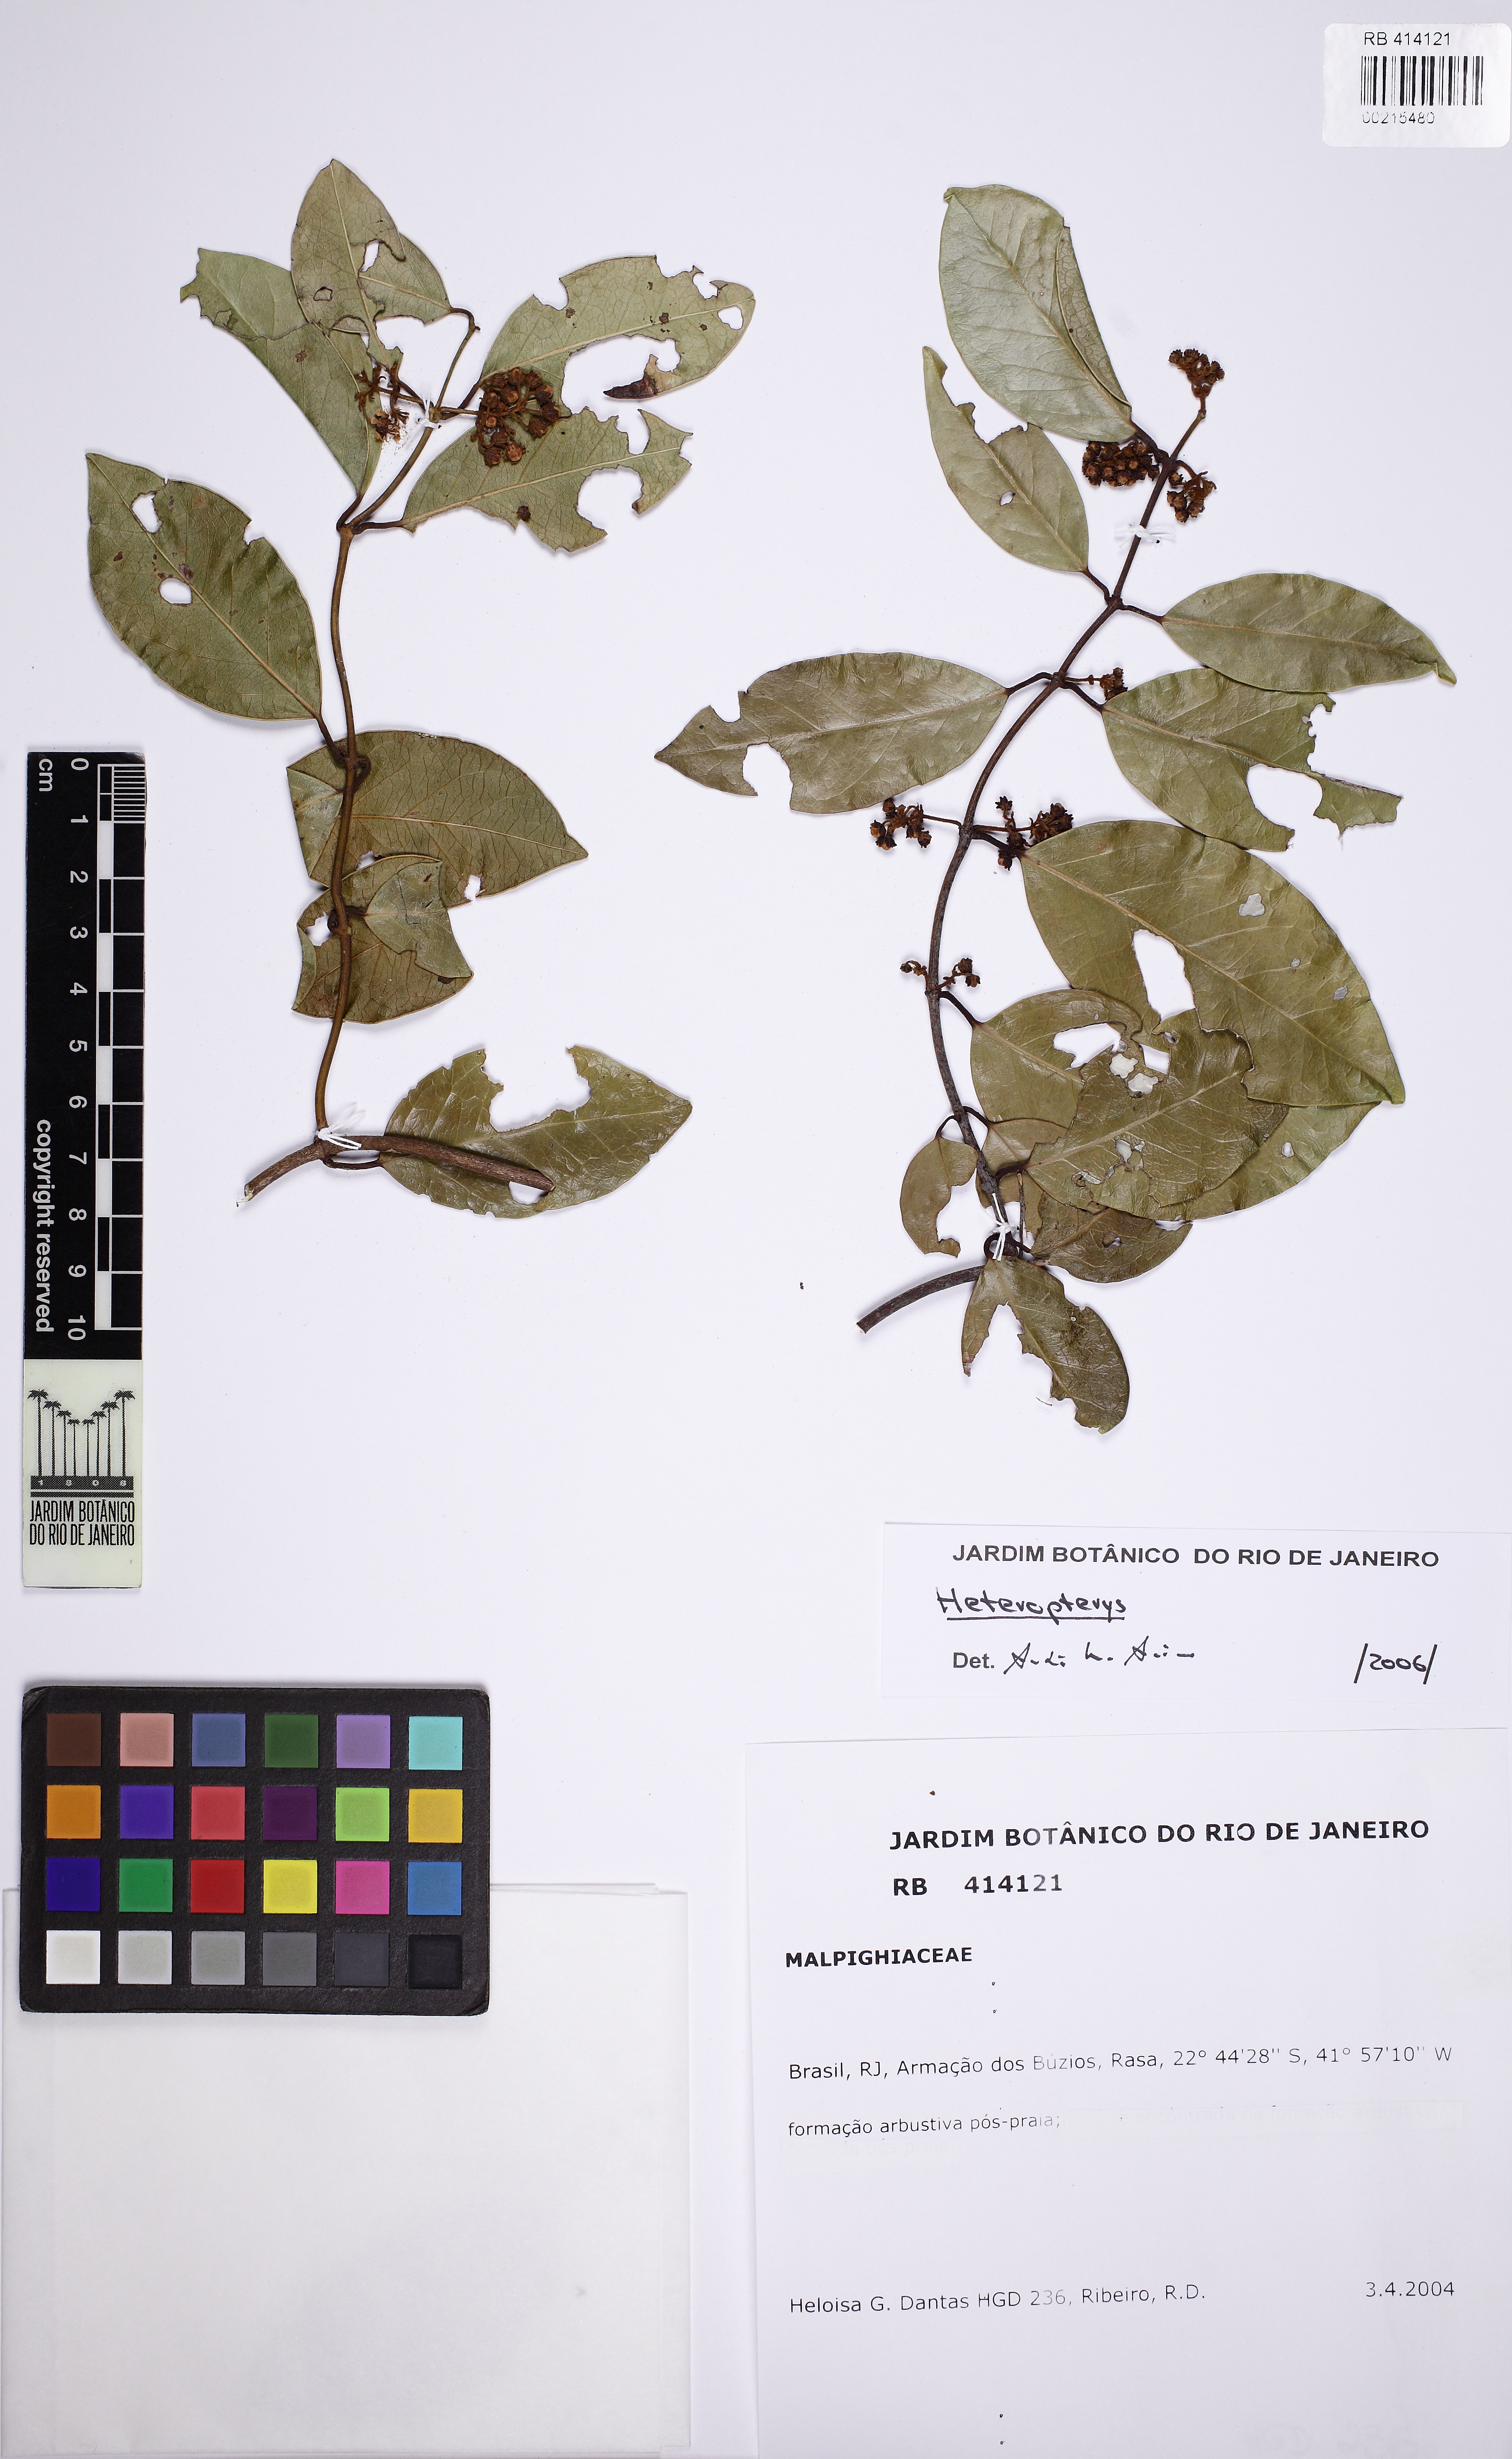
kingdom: Plantae
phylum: Tracheophyta
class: Magnoliopsida
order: Malpighiales
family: Malpighiaceae
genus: Heteropterys
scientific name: Heteropterys
